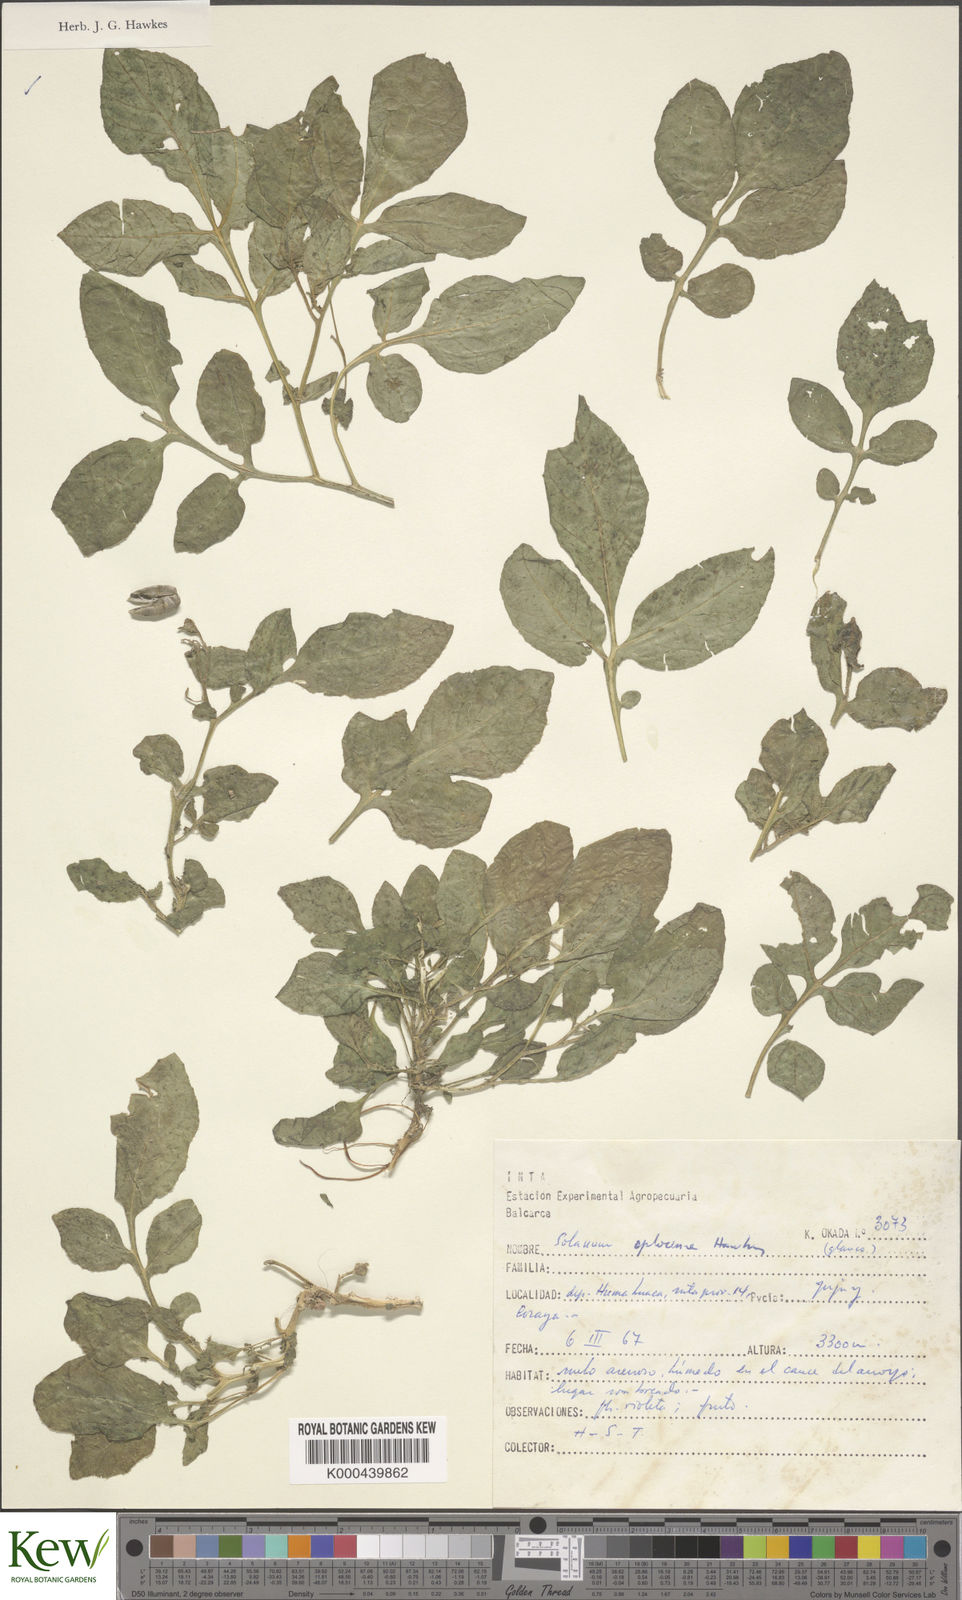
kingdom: Plantae
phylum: Tracheophyta
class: Magnoliopsida
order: Solanales
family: Solanaceae
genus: Solanum
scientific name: Solanum brevicaule
